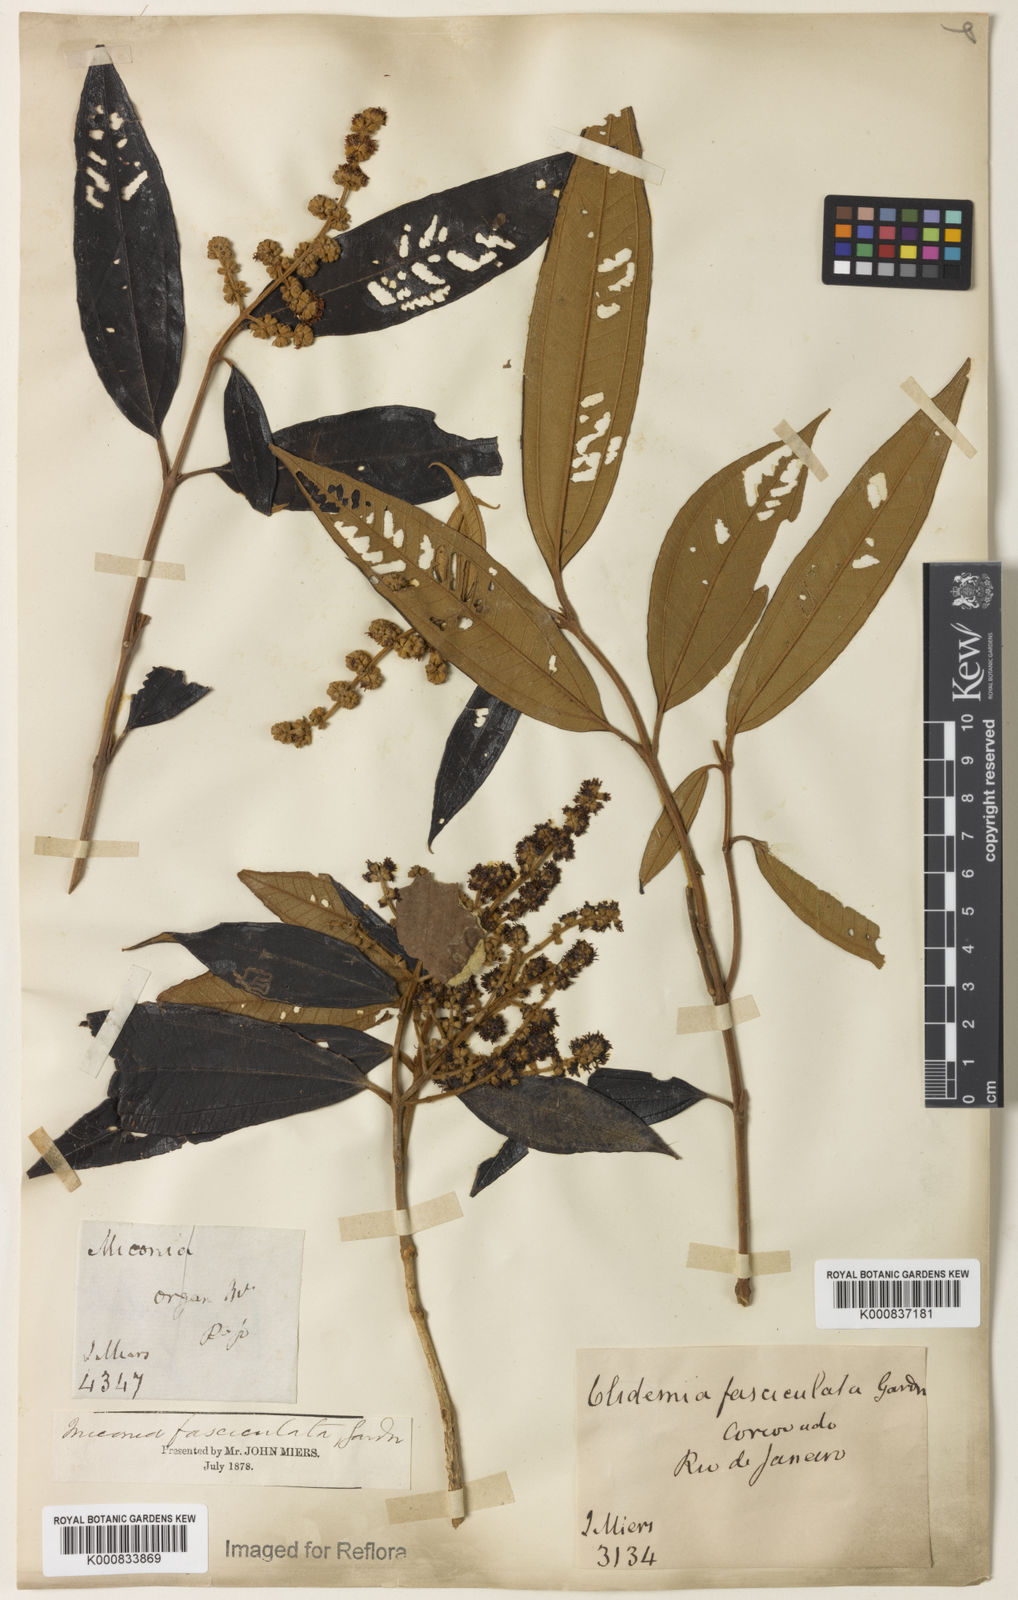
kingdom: Plantae
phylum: Tracheophyta
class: Magnoliopsida
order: Myrtales
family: Melastomataceae
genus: Miconia
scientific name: Miconia fasciculata
